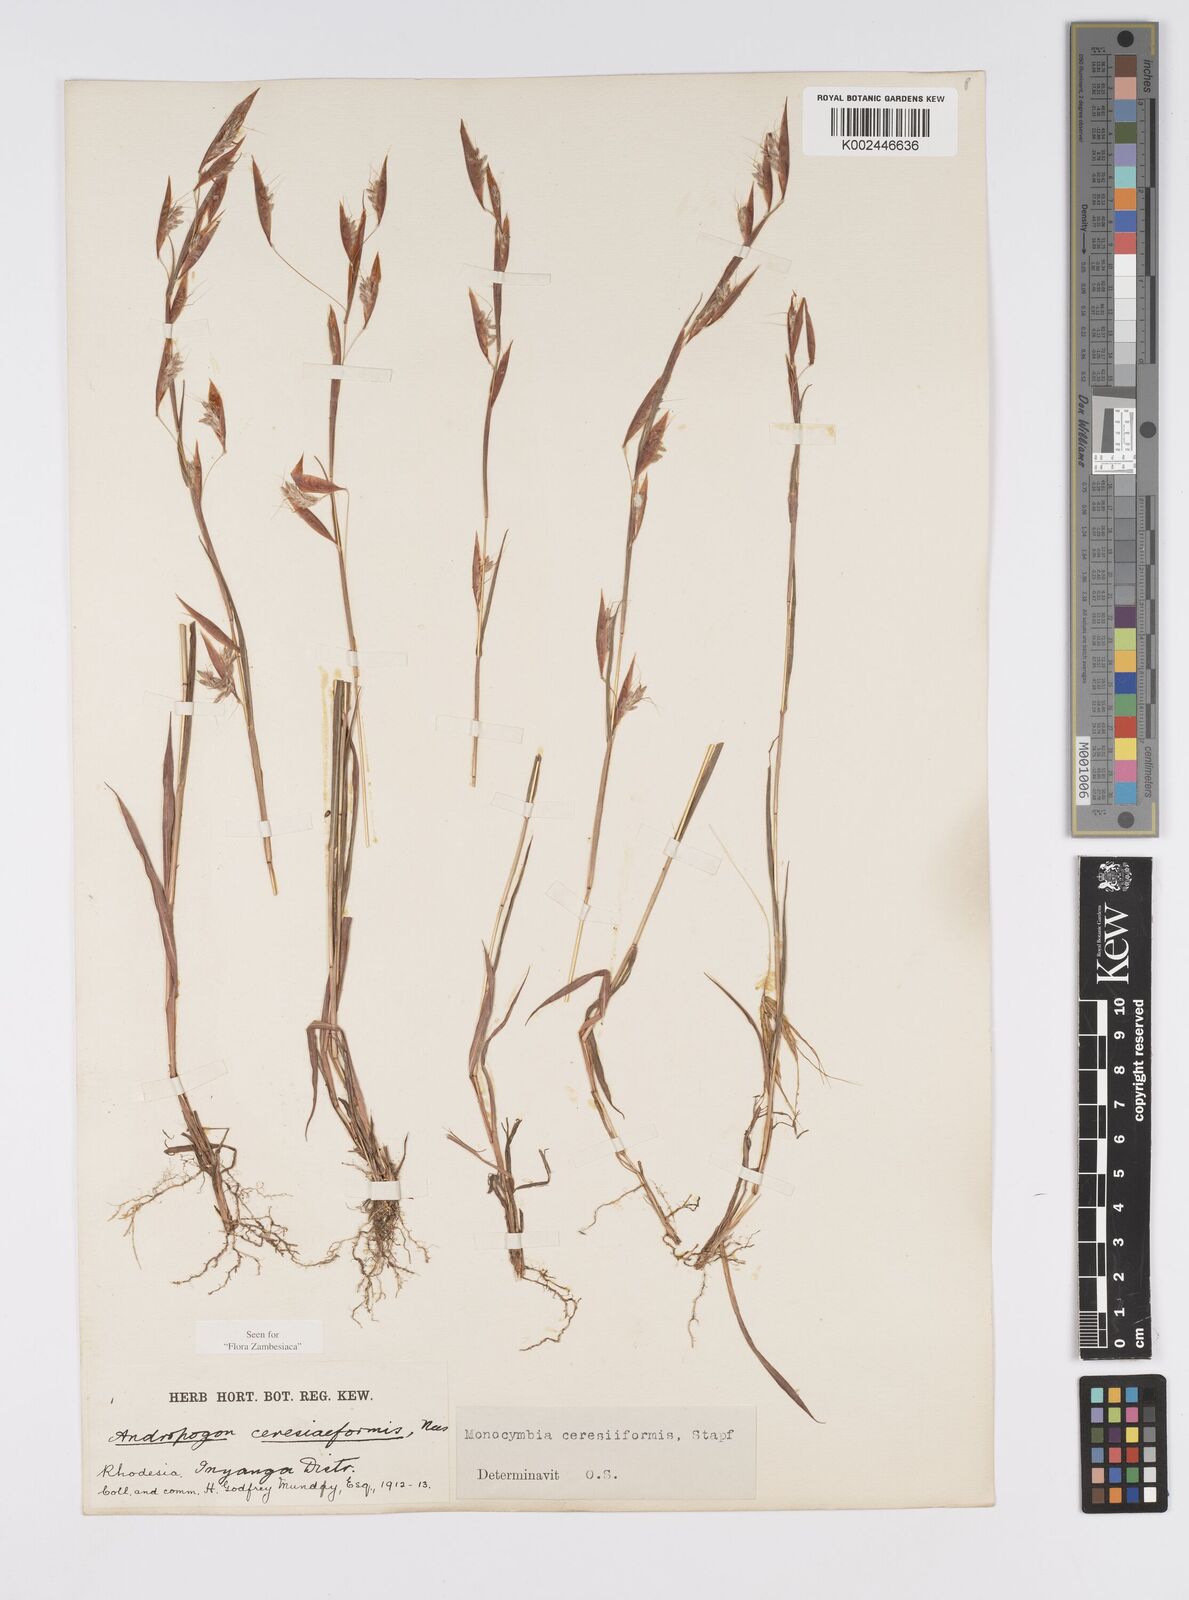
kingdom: Plantae
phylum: Tracheophyta
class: Liliopsida
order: Poales
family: Poaceae
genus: Monocymbium
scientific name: Monocymbium ceresiiforme
